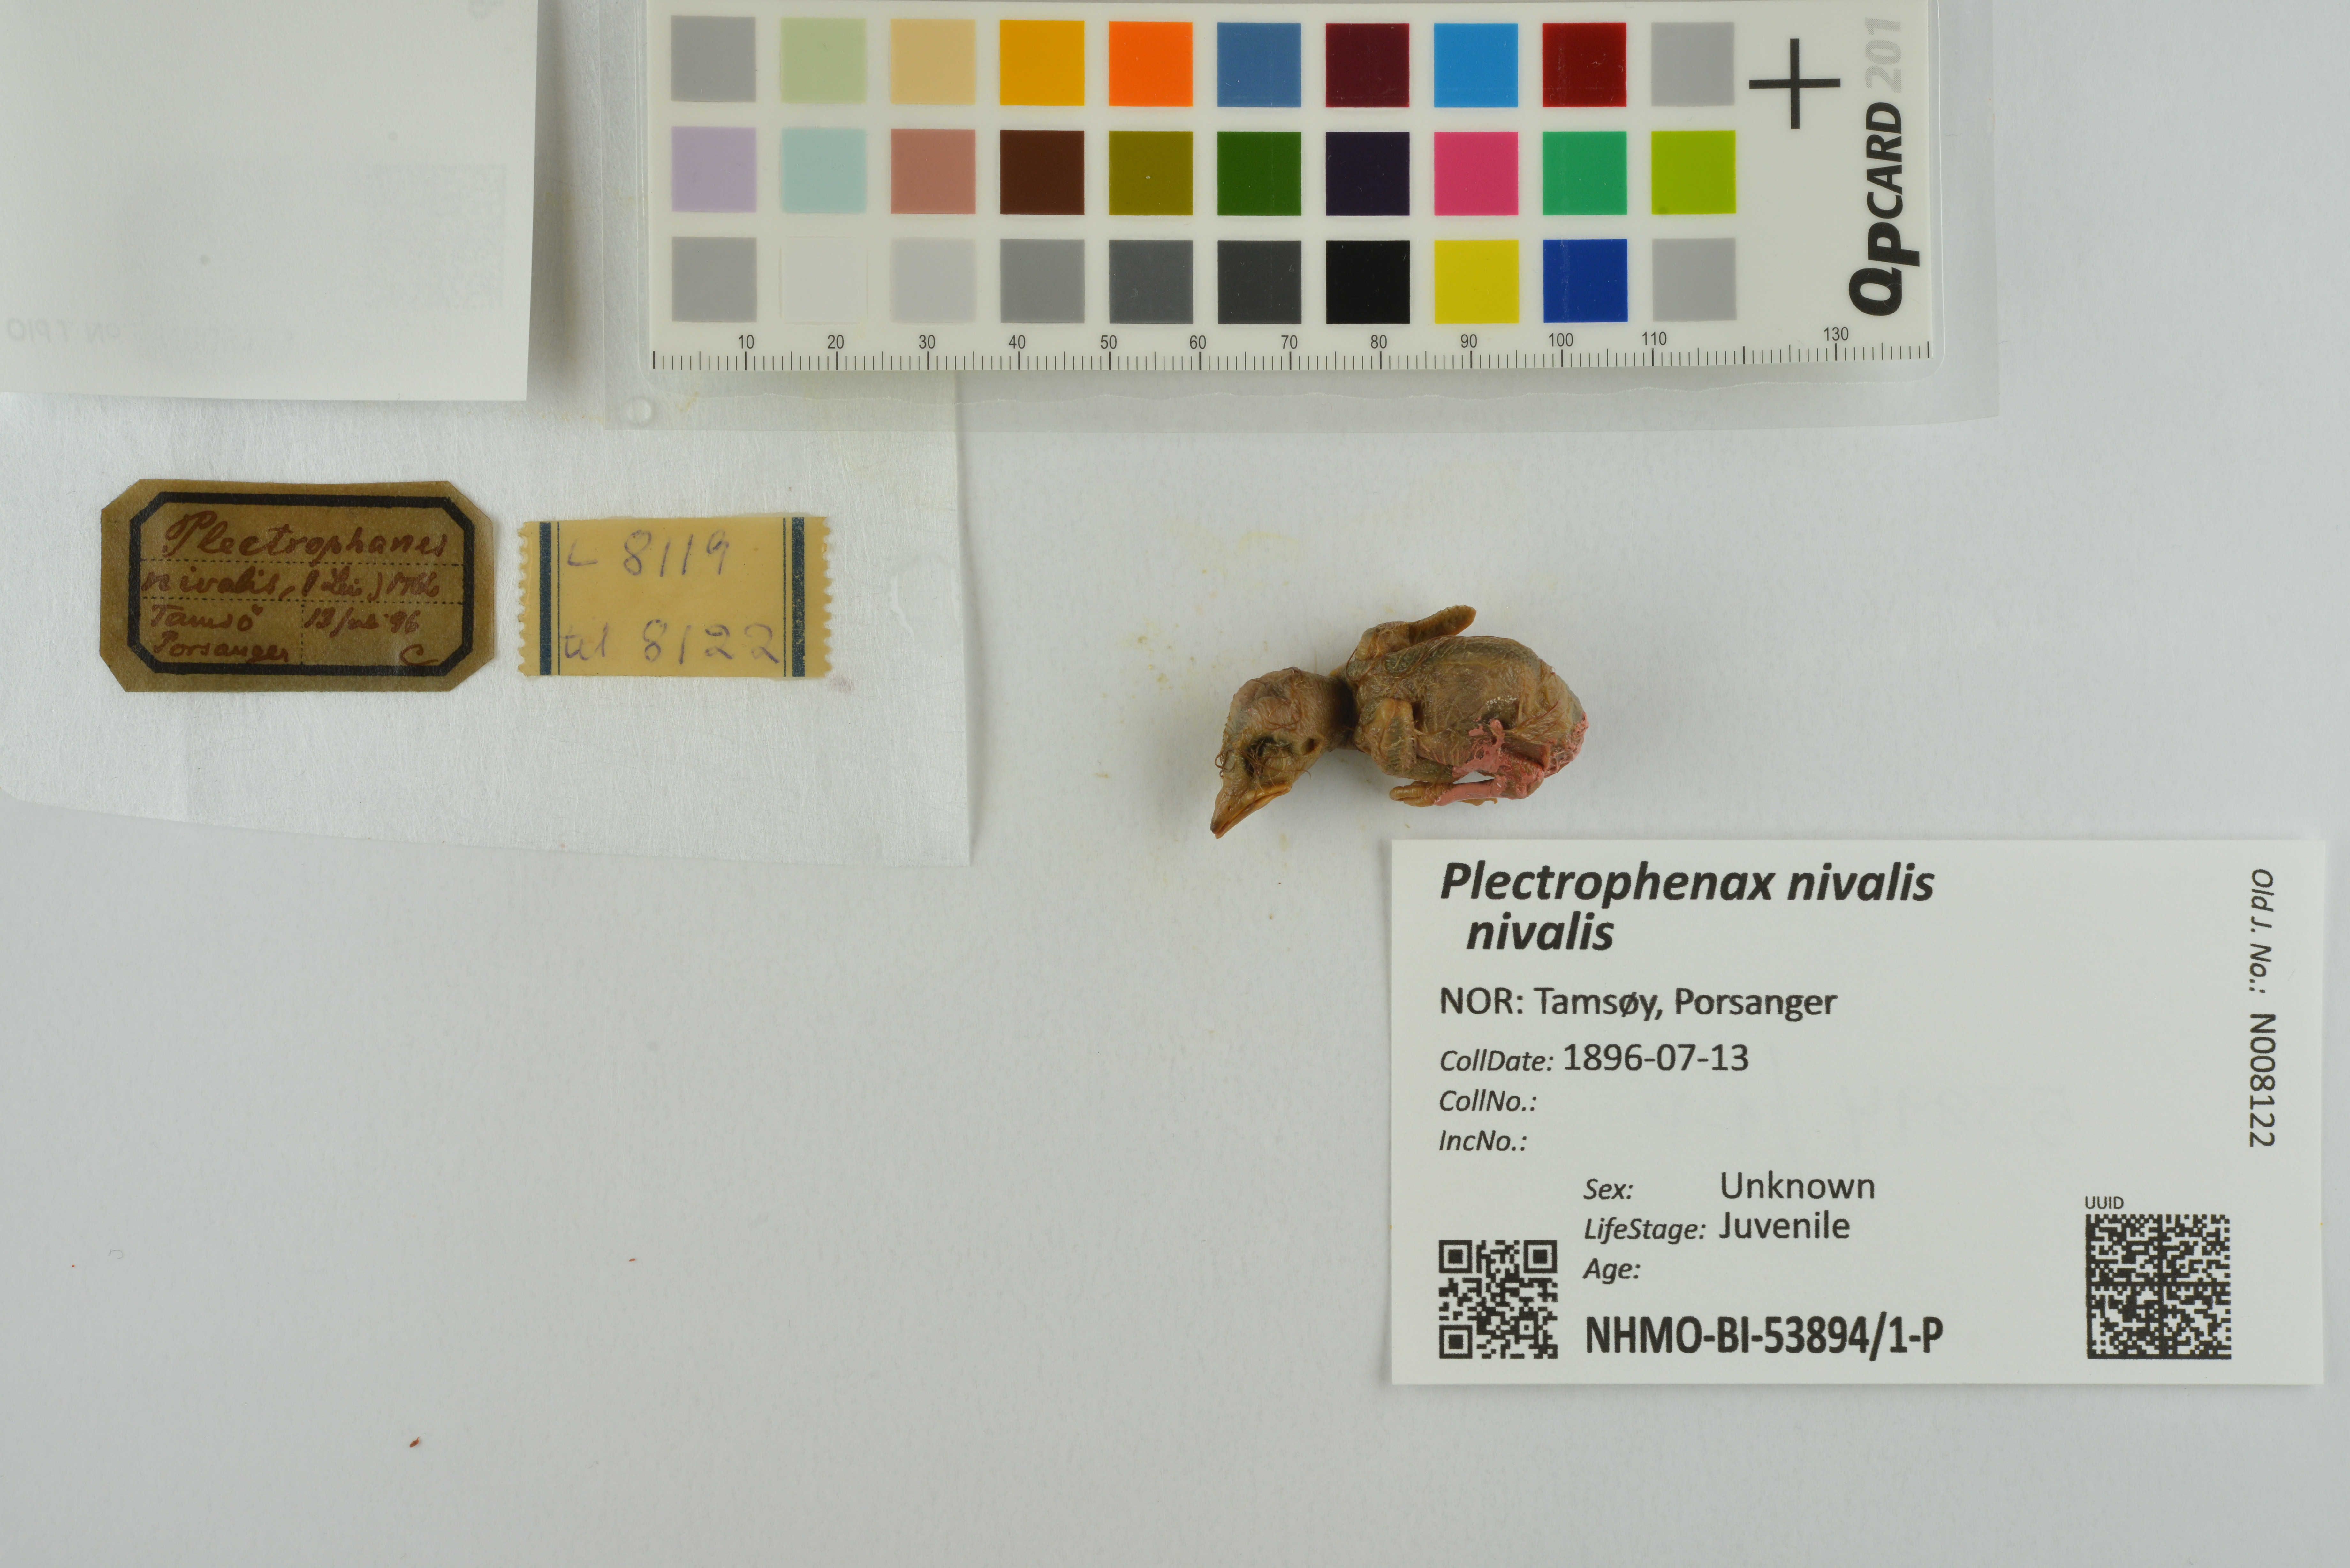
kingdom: Animalia
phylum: Chordata
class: Aves
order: Passeriformes
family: Calcariidae
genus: Plectrophenax
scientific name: Plectrophenax nivalis
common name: Snow bunting
